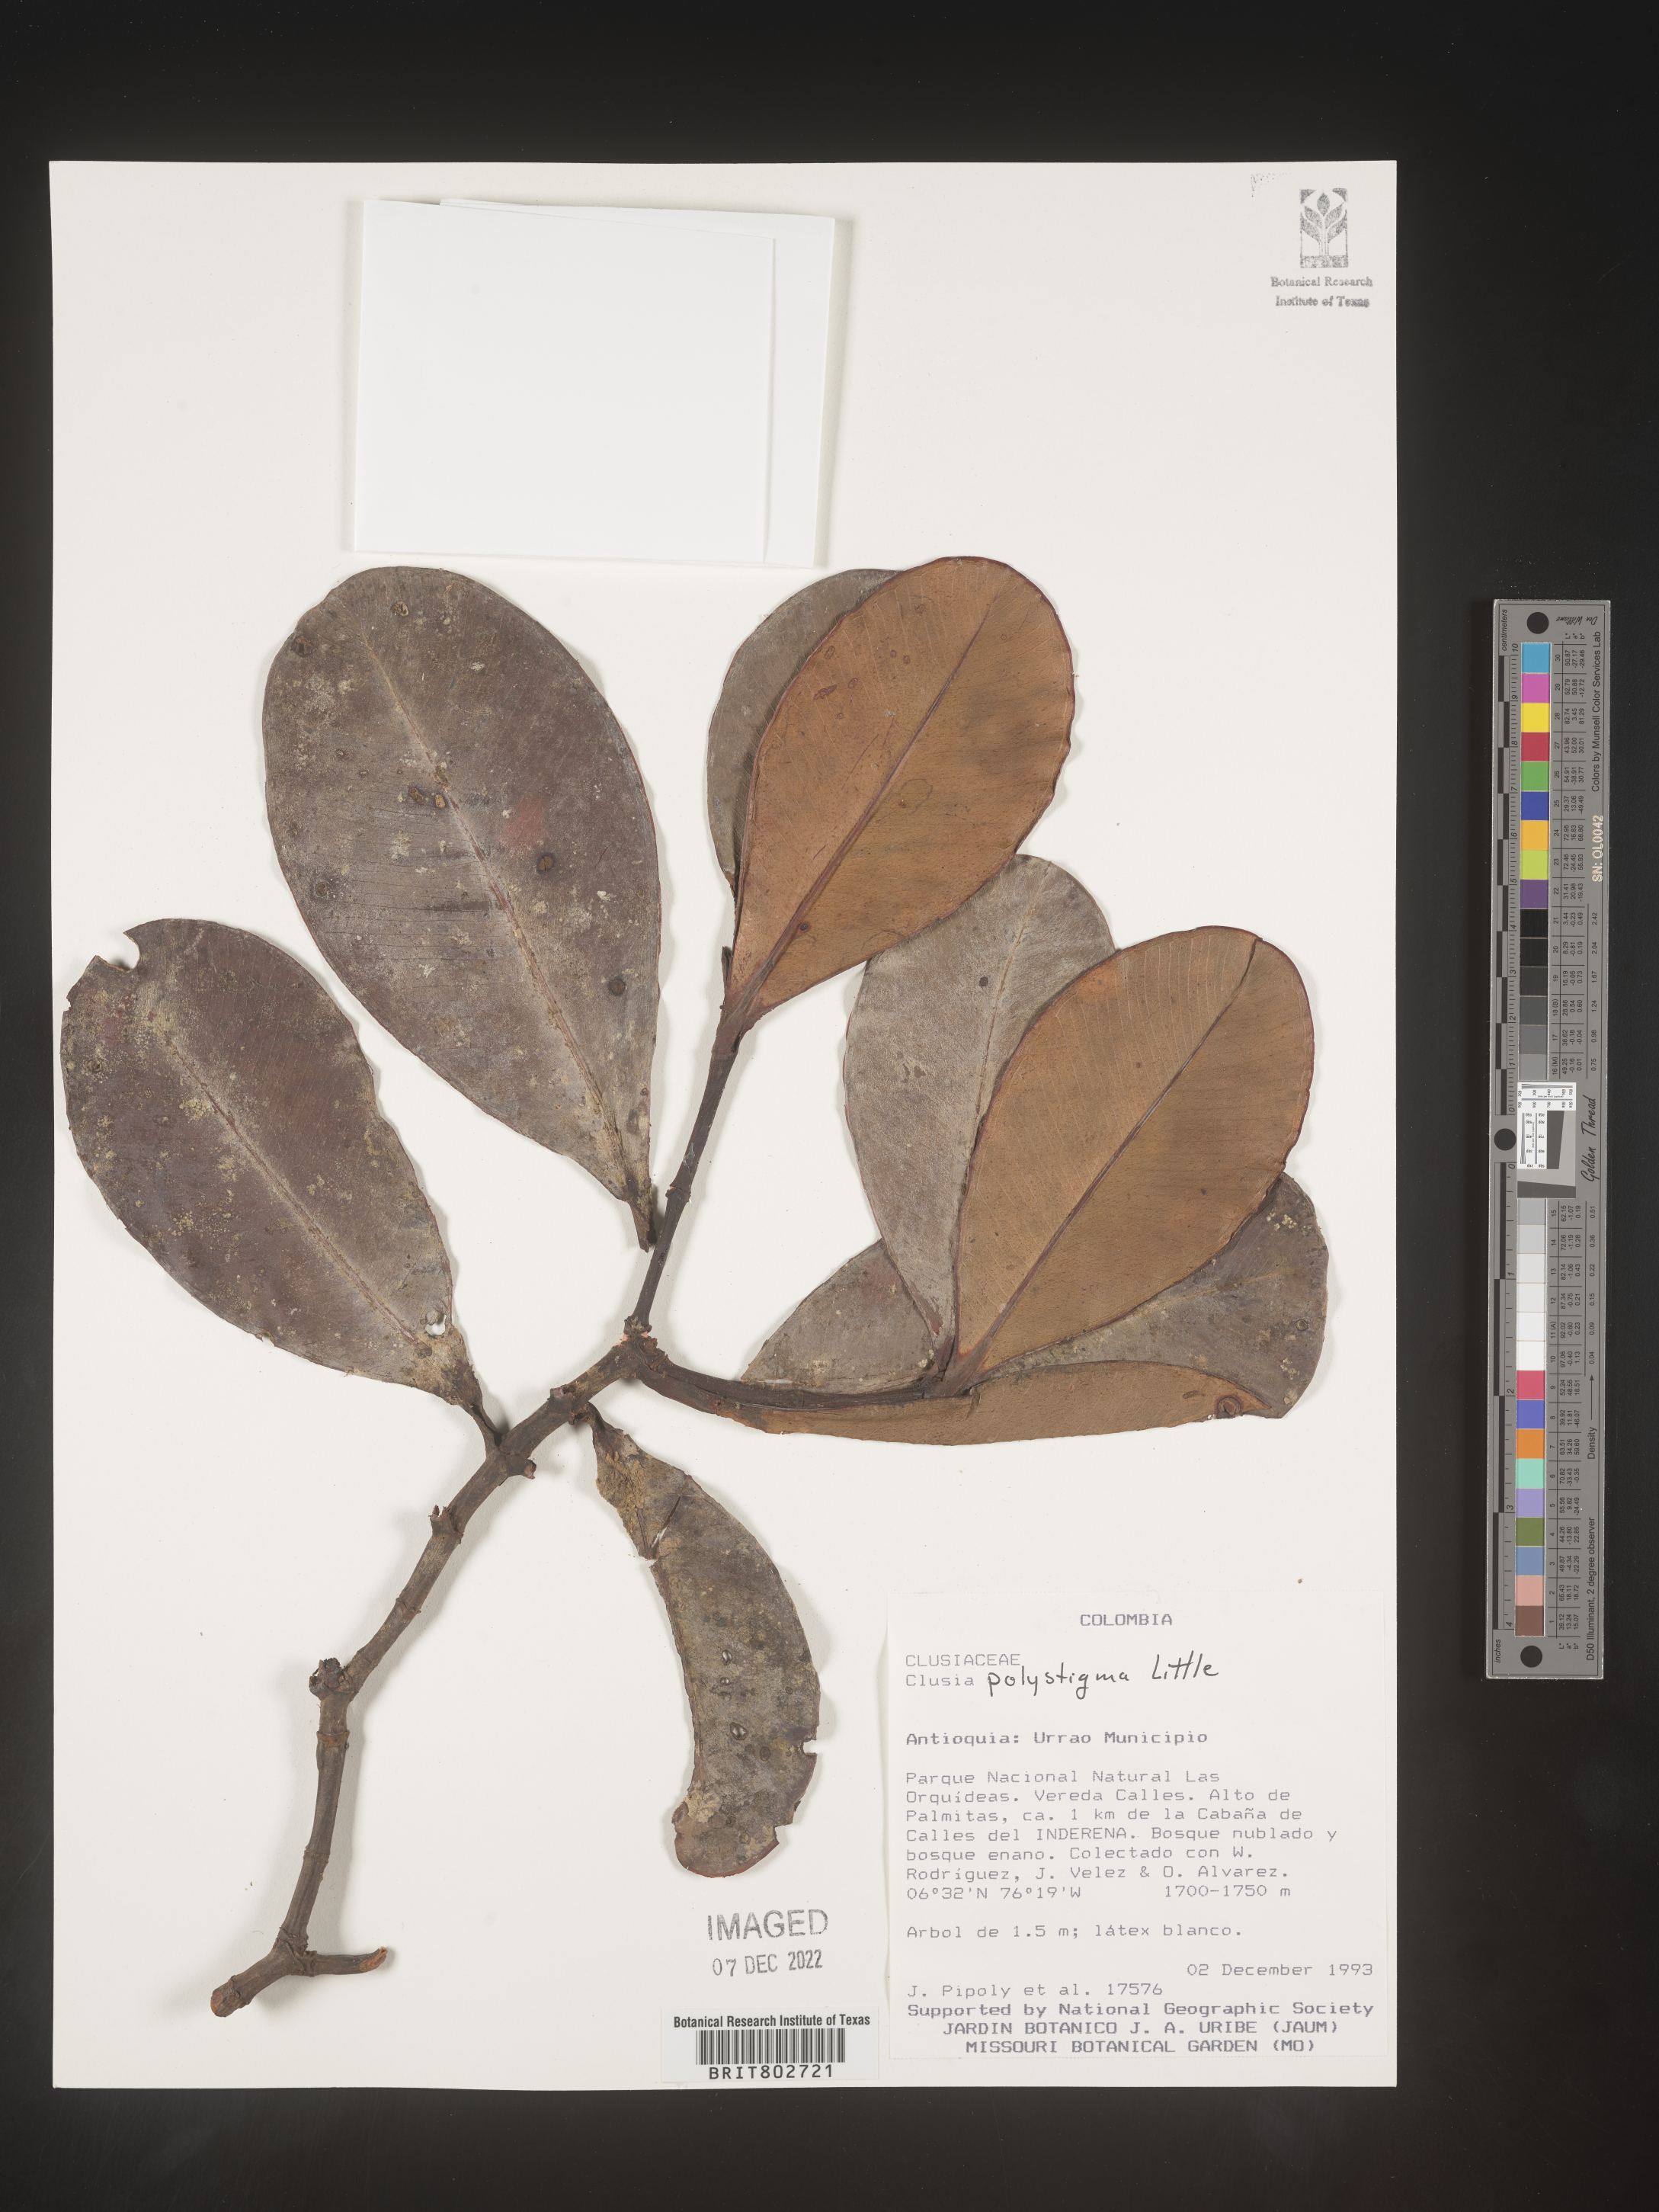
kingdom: Plantae
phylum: Tracheophyta
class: Magnoliopsida
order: Malpighiales
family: Clusiaceae
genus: Clusia
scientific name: Clusia
